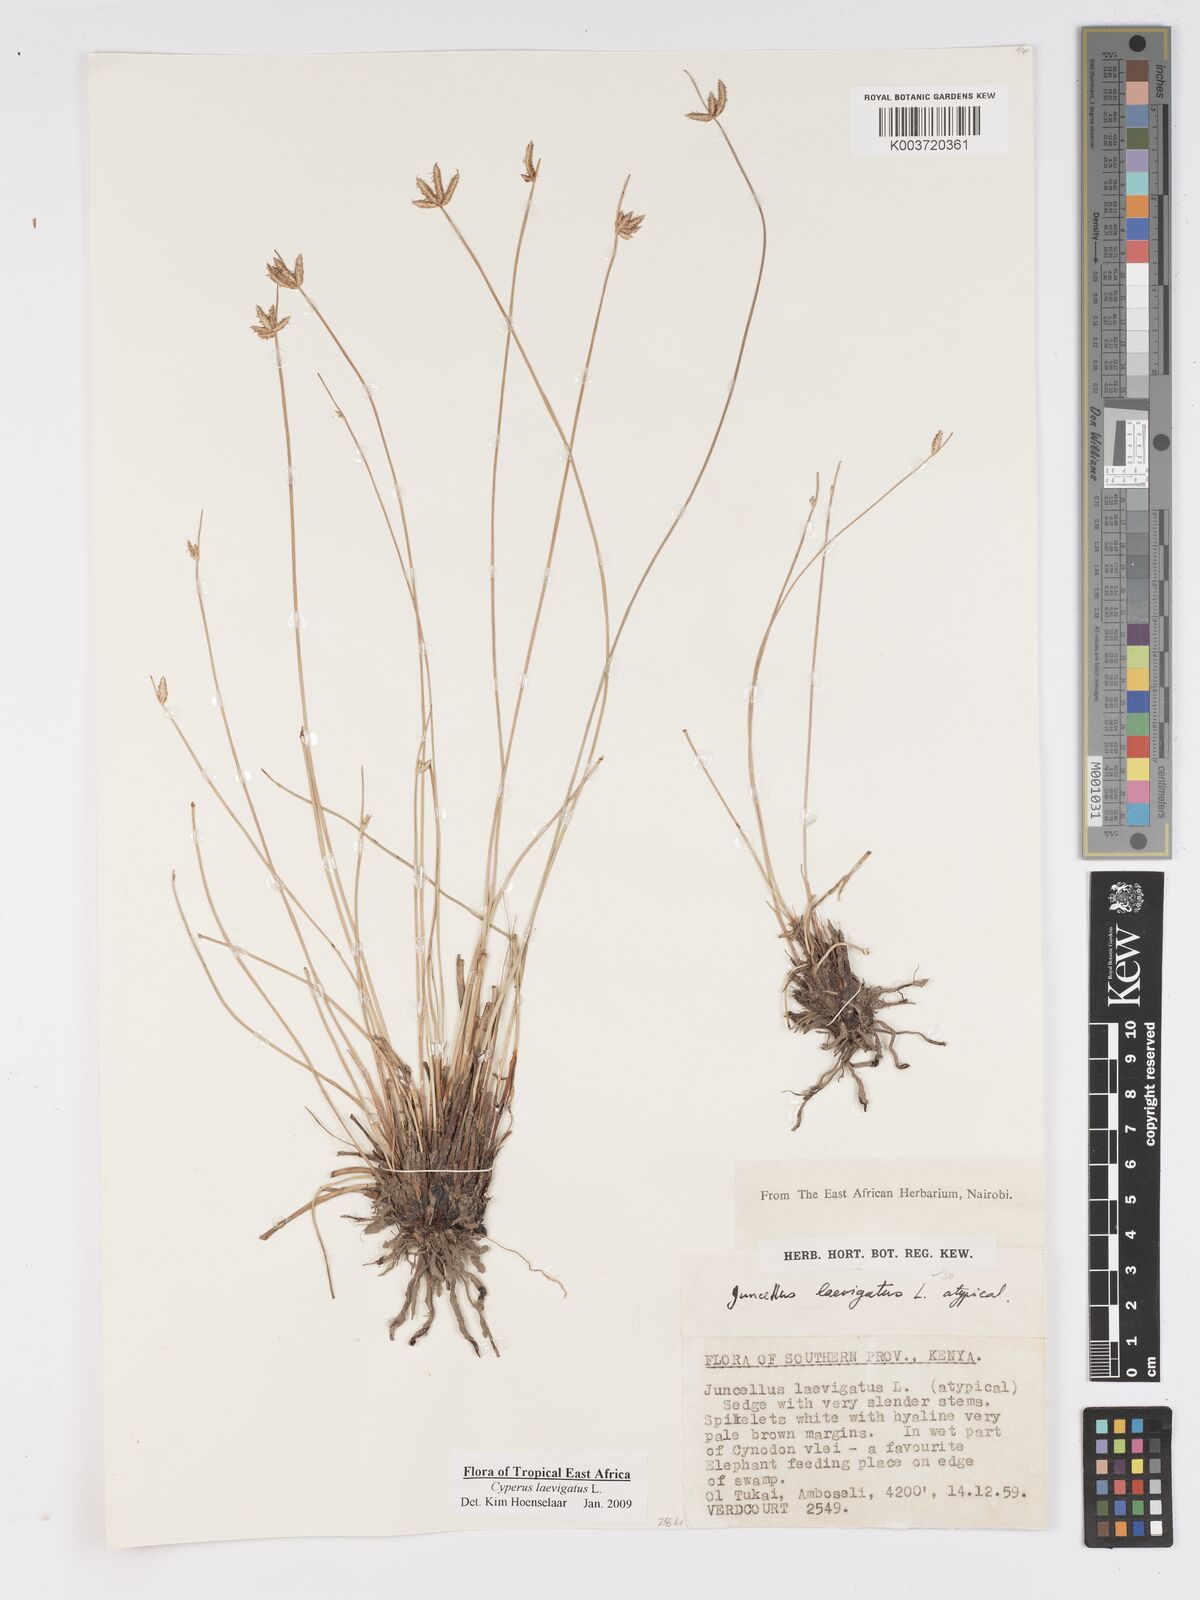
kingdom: Plantae
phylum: Tracheophyta
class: Liliopsida
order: Poales
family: Cyperaceae
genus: Cyperus
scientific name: Cyperus laevigatus
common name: Smooth flat sedge
